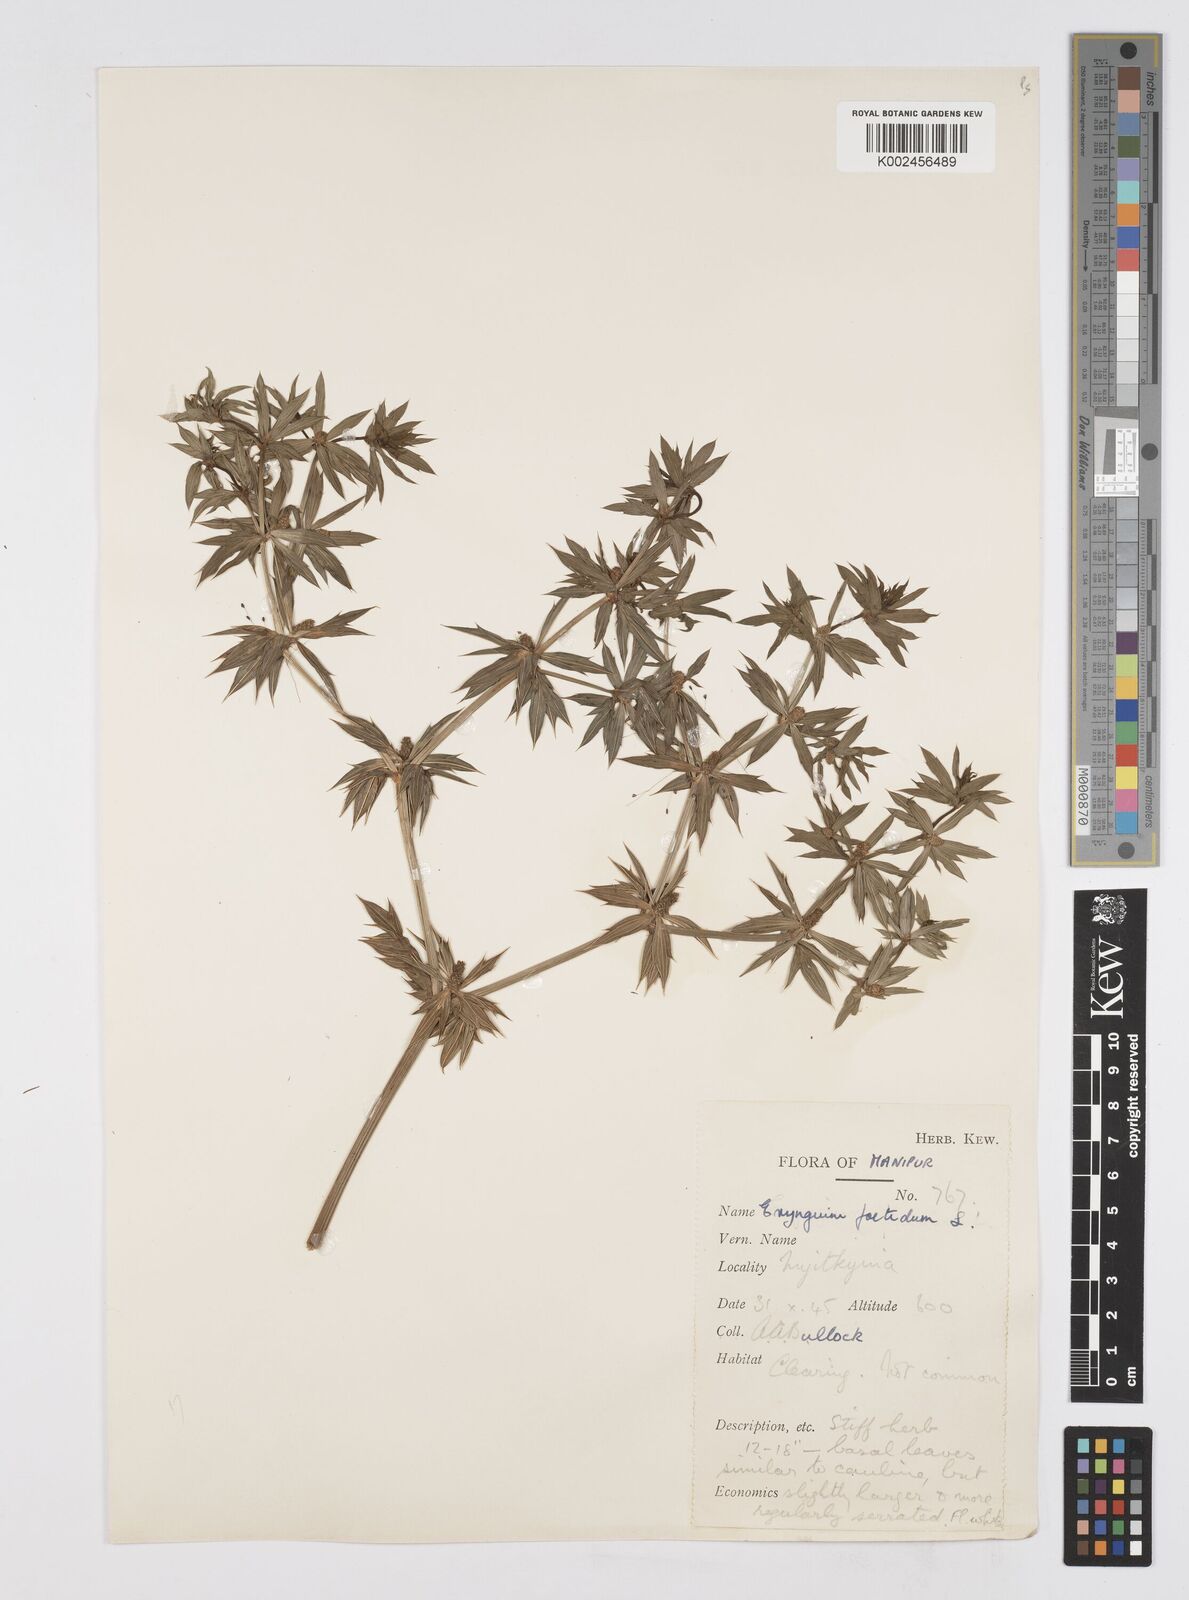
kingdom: Plantae
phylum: Tracheophyta
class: Magnoliopsida
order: Apiales
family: Apiaceae
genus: Eryngium
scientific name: Eryngium foetidum
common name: Fitweed
